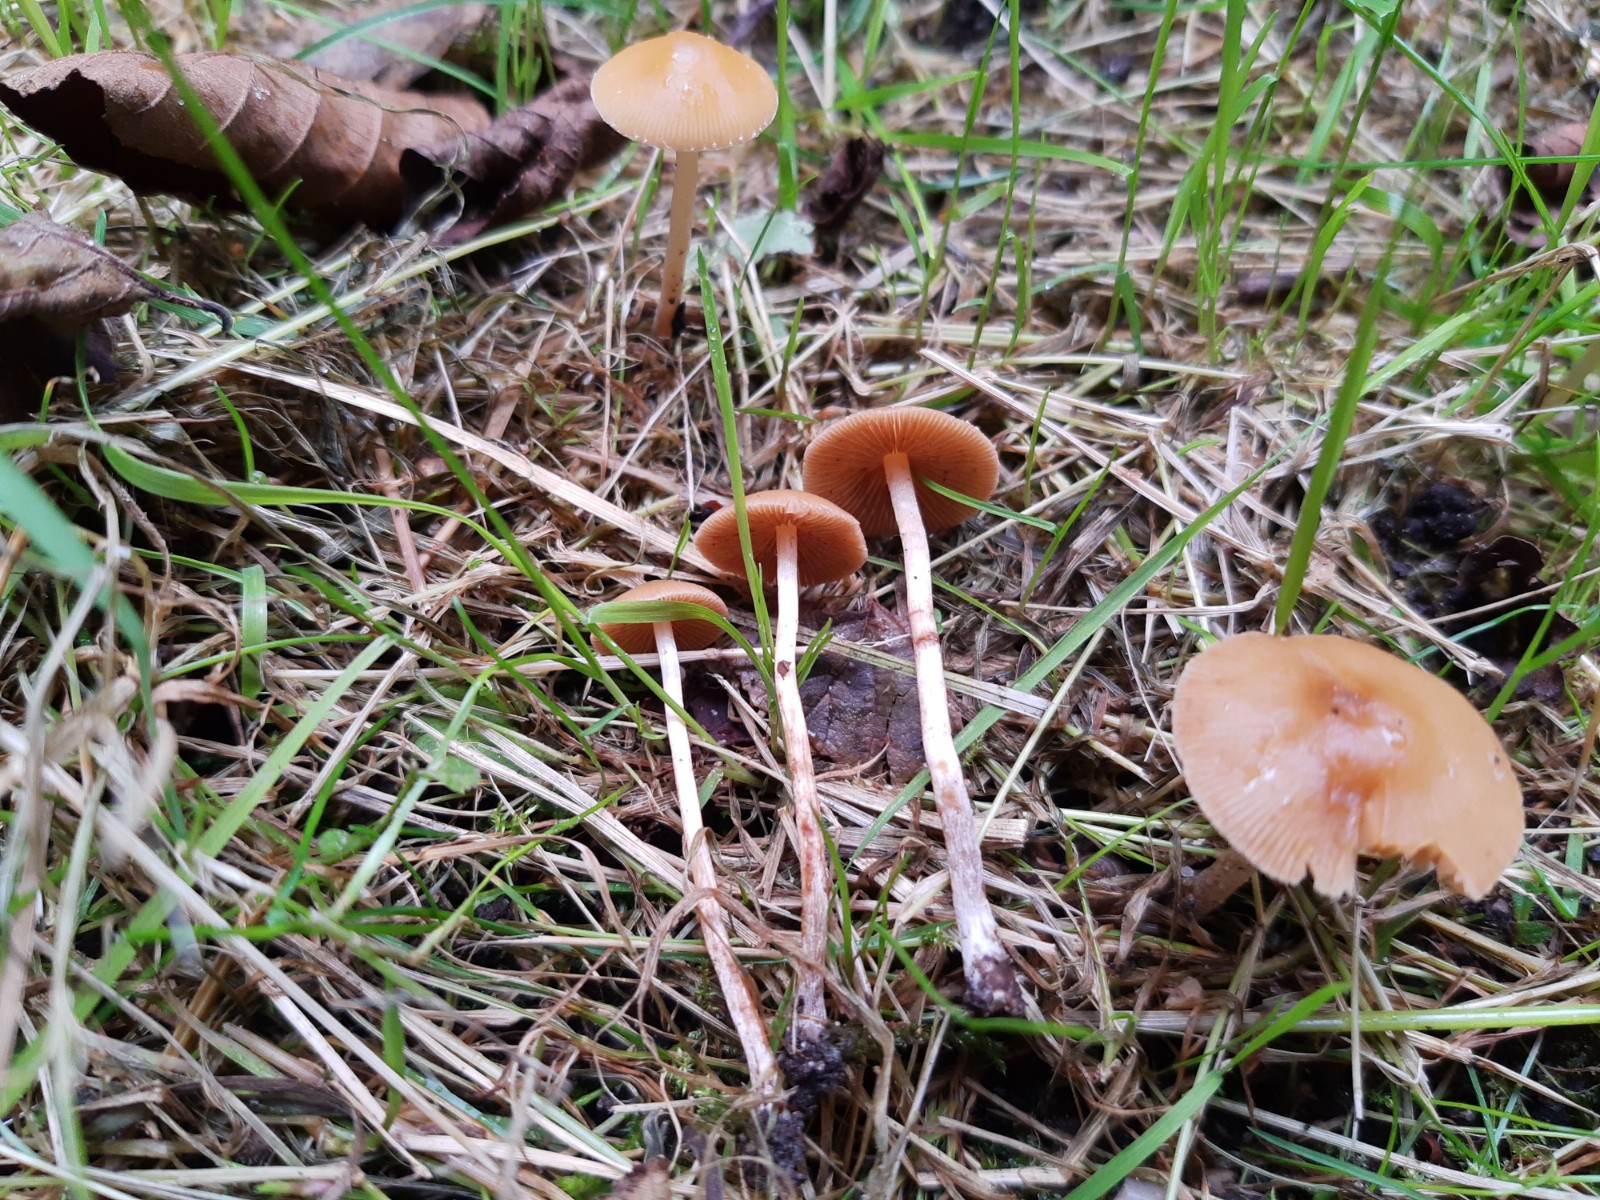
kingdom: Fungi
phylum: Basidiomycota
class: Agaricomycetes
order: Agaricales
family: Bolbitiaceae
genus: Pholiotina
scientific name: Pholiotina
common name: dansehat
